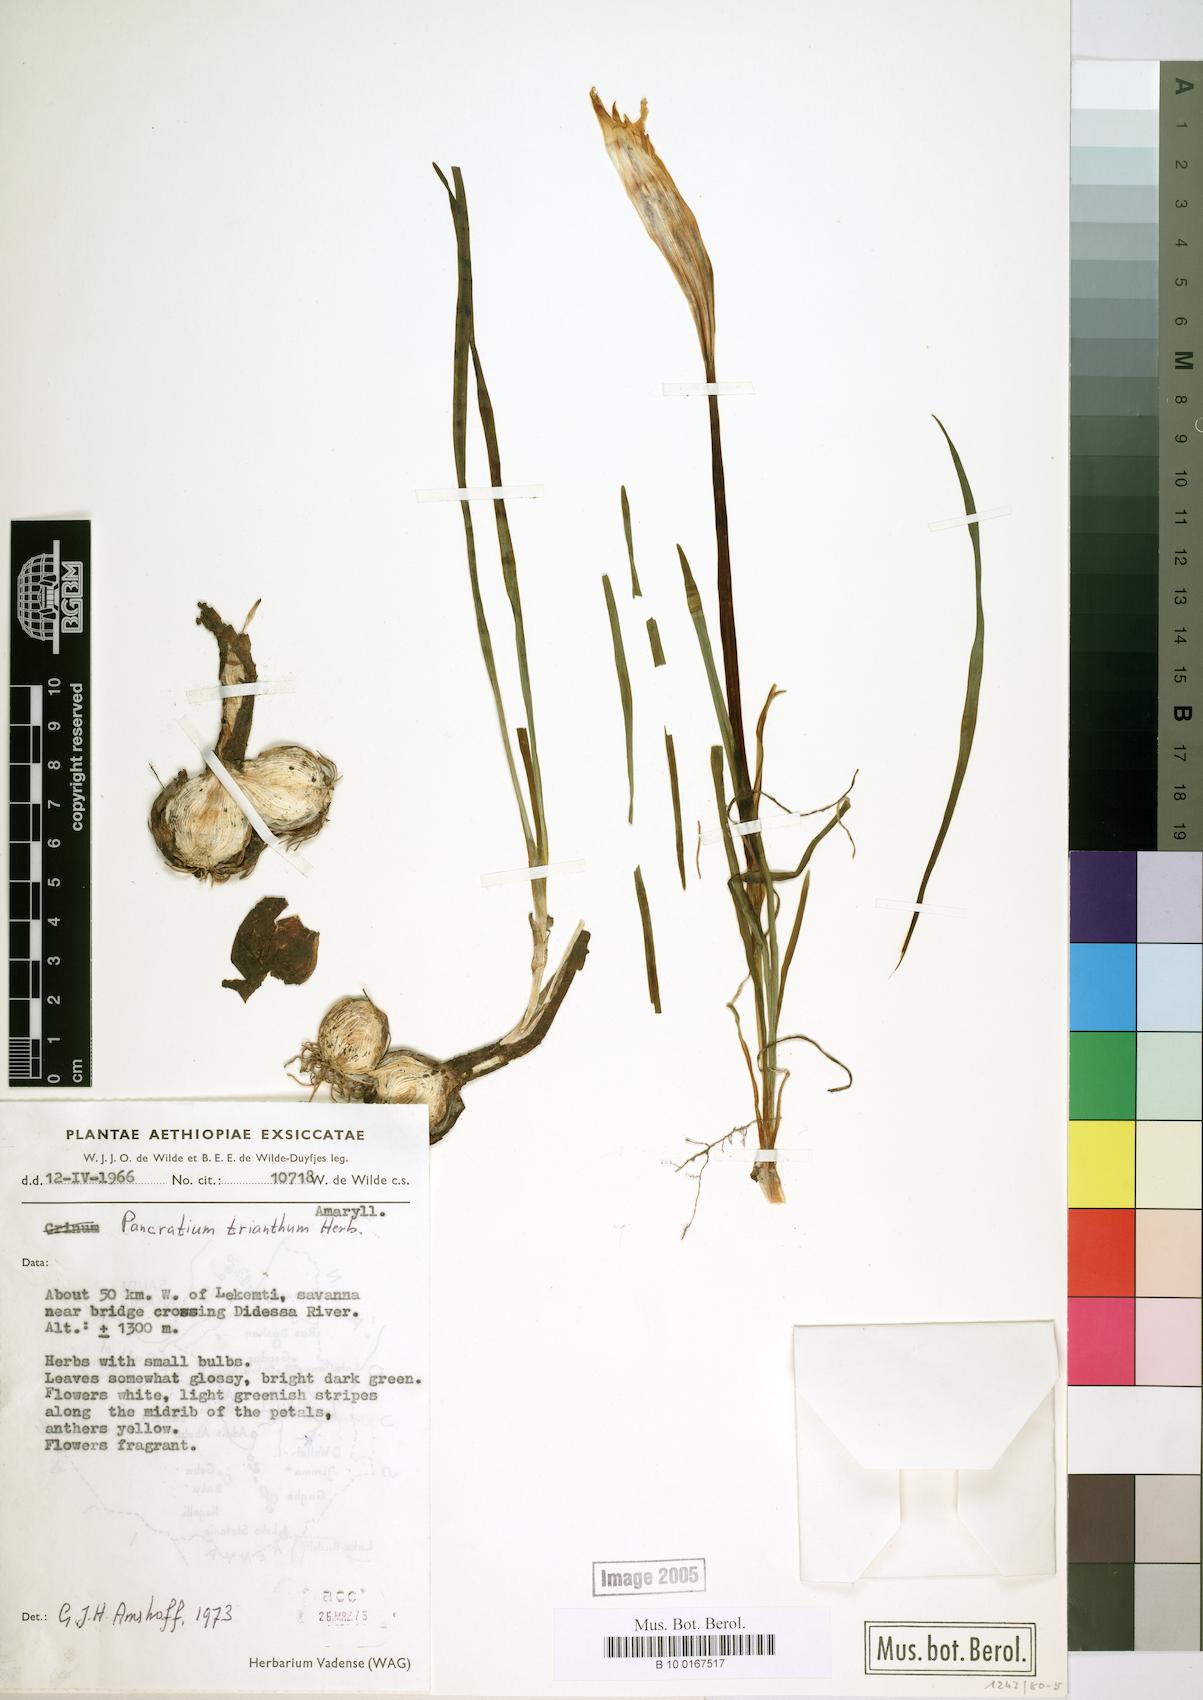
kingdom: Plantae
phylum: Tracheophyta
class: Liliopsida
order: Asparagales
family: Amaryllidaceae
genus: Pancratium
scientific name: Pancratium trianthum
